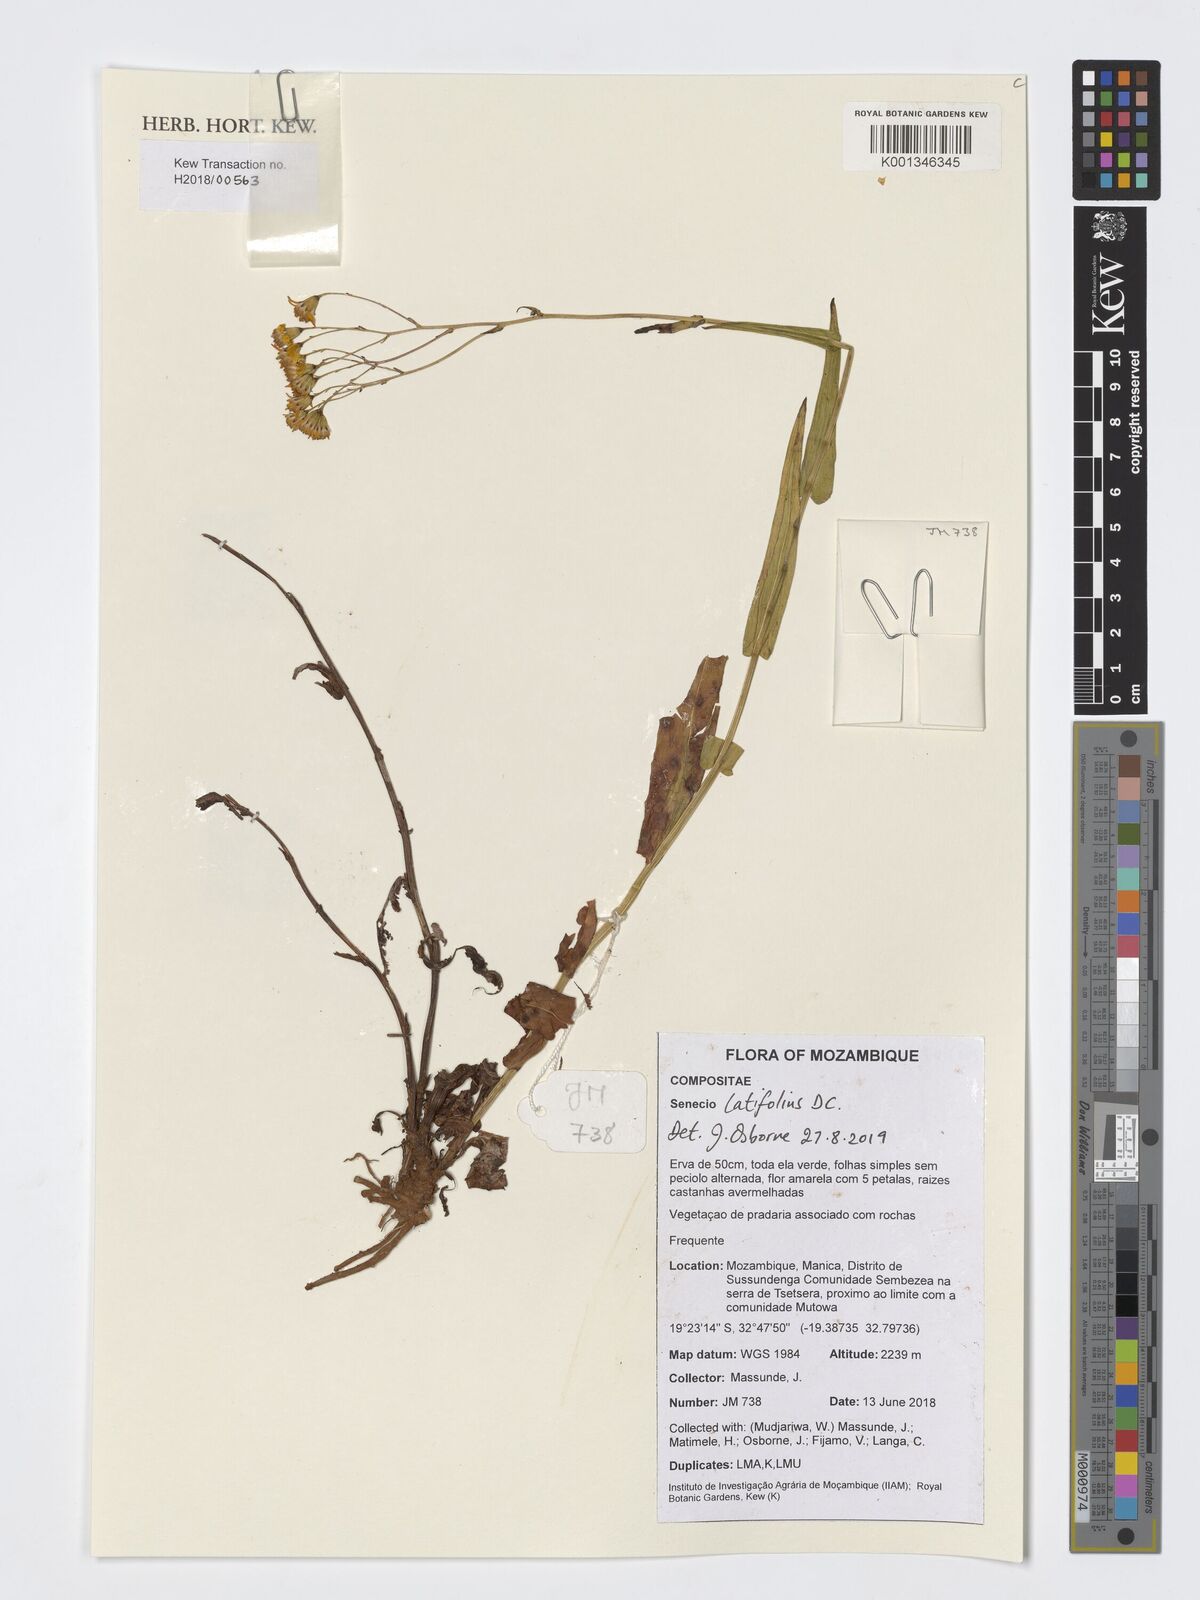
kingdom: Plantae
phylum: Tracheophyta
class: Magnoliopsida
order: Asterales
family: Asteraceae
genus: Senecio
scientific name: Senecio latifolius
